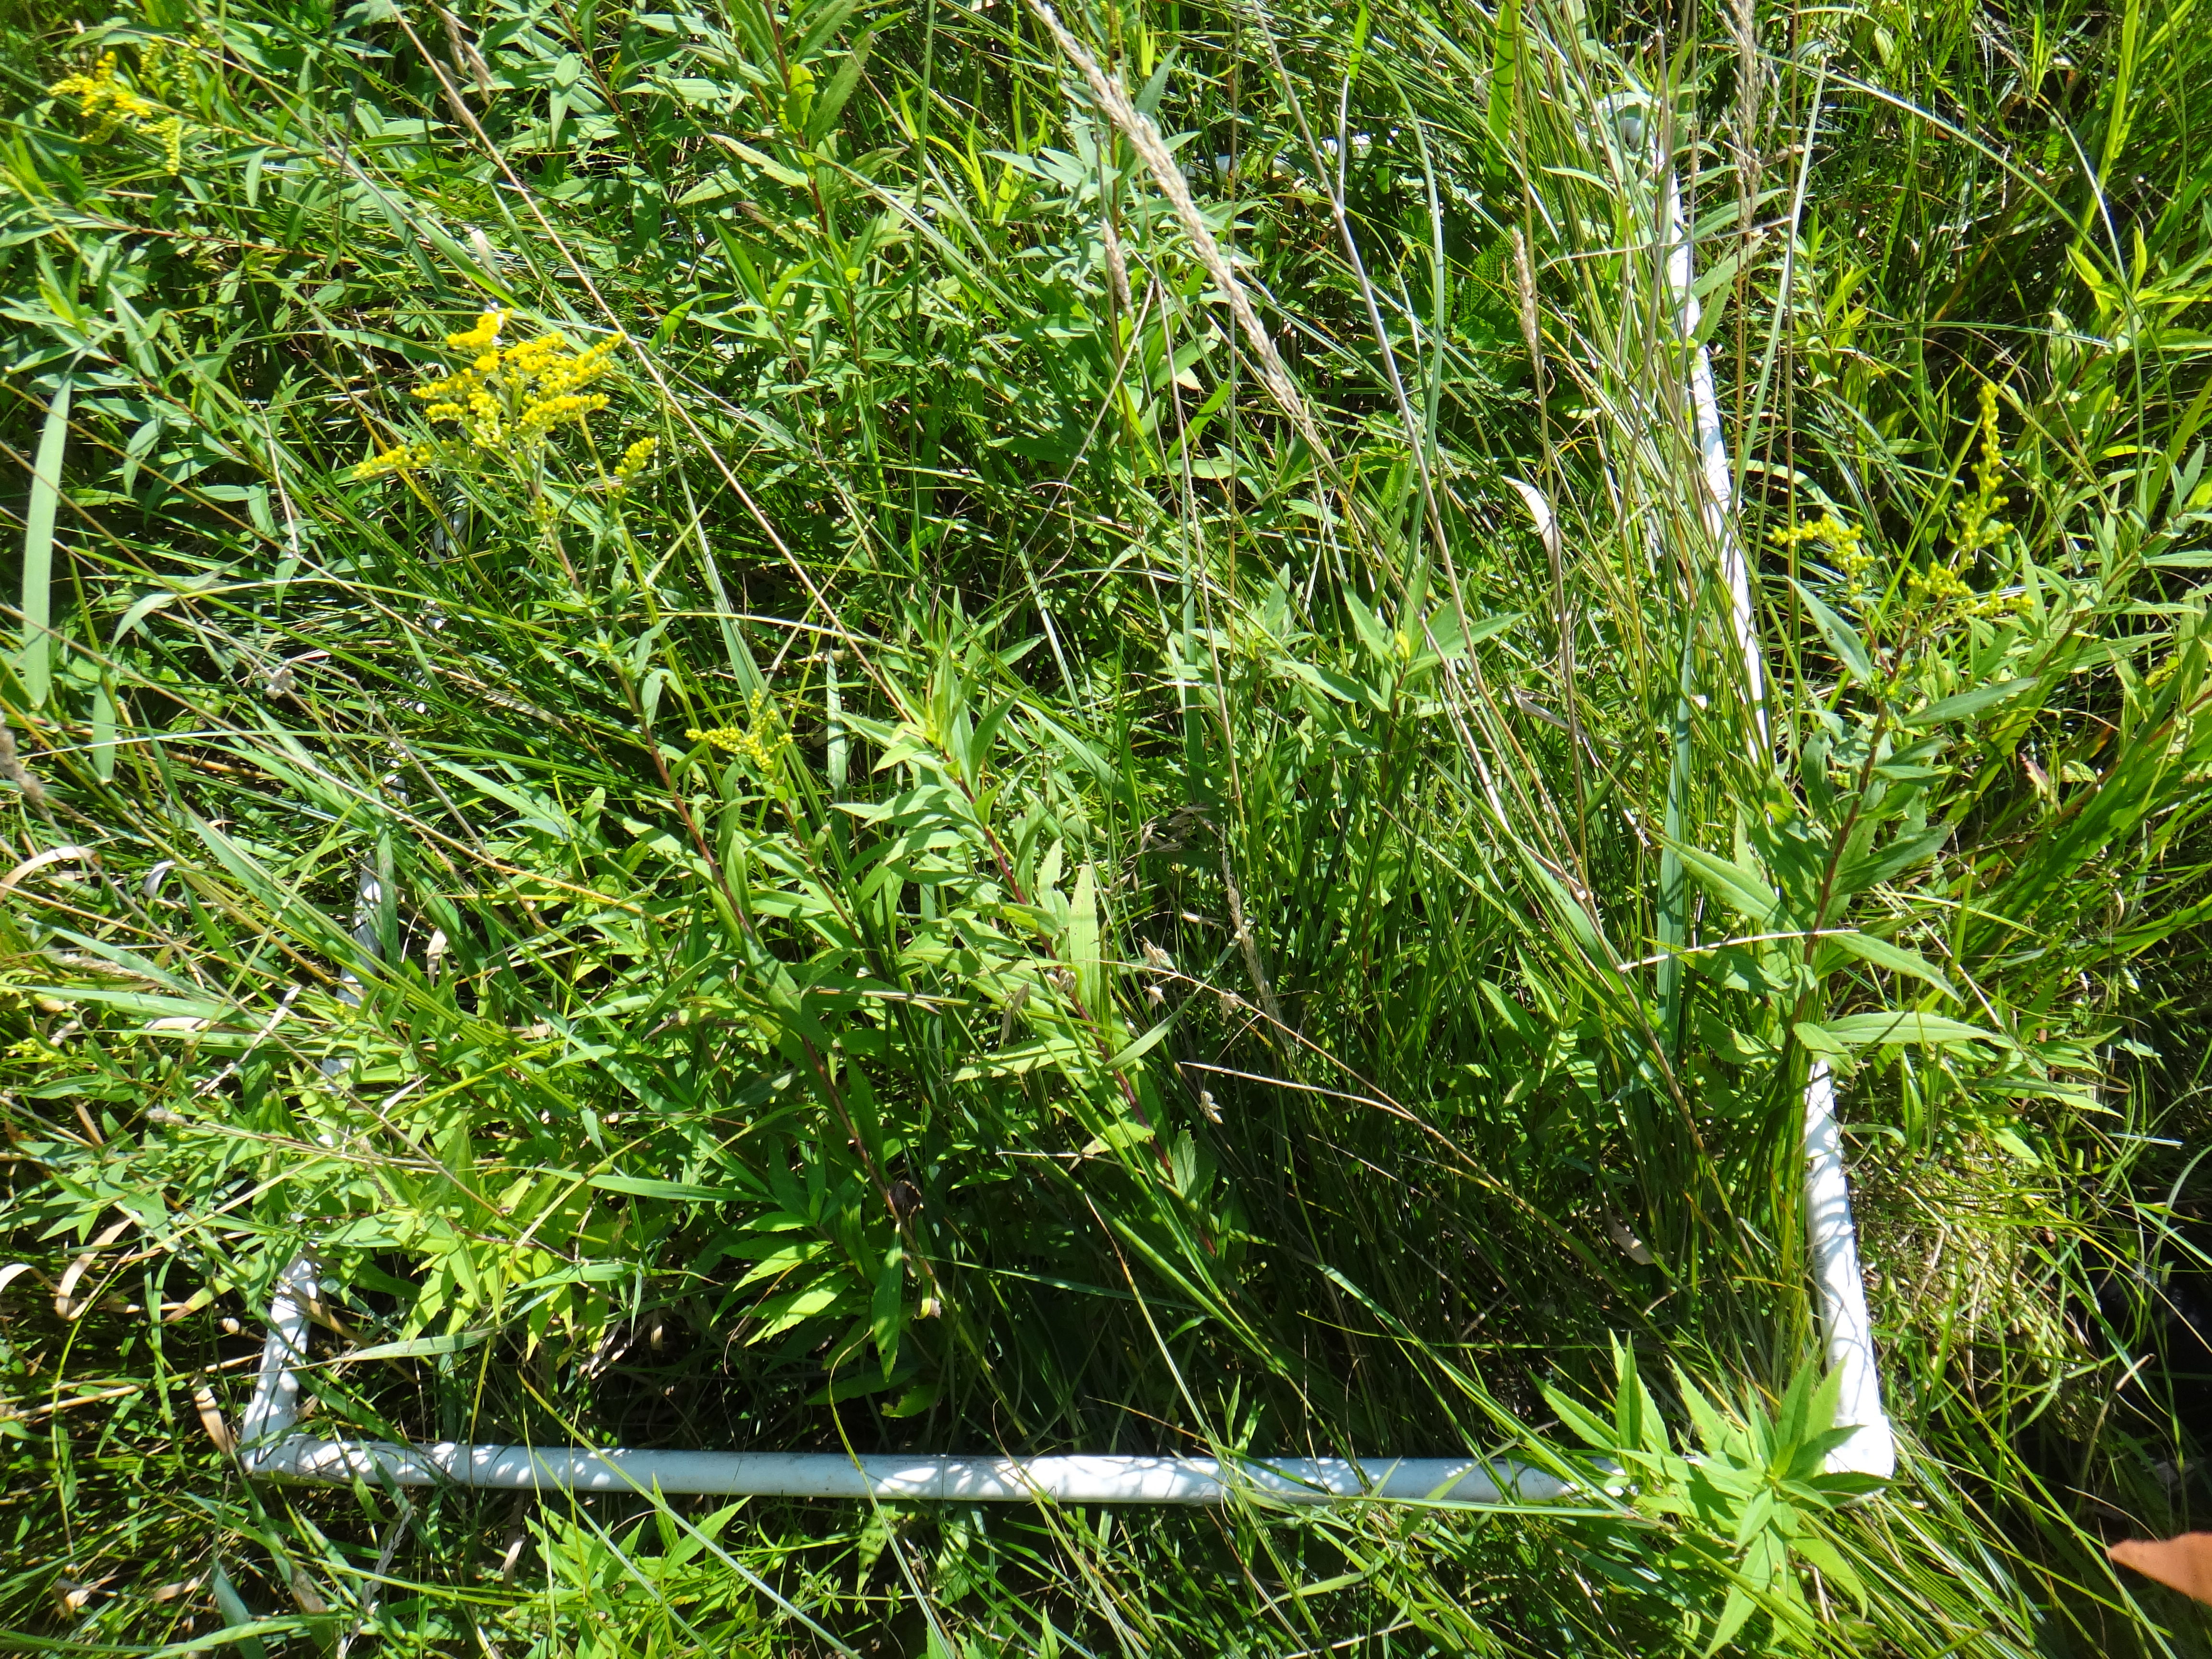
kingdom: Plantae
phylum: Tracheophyta
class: Liliopsida
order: Asparagales
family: Iridaceae
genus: Iris
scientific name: Iris virginica
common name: Southern blue flag
